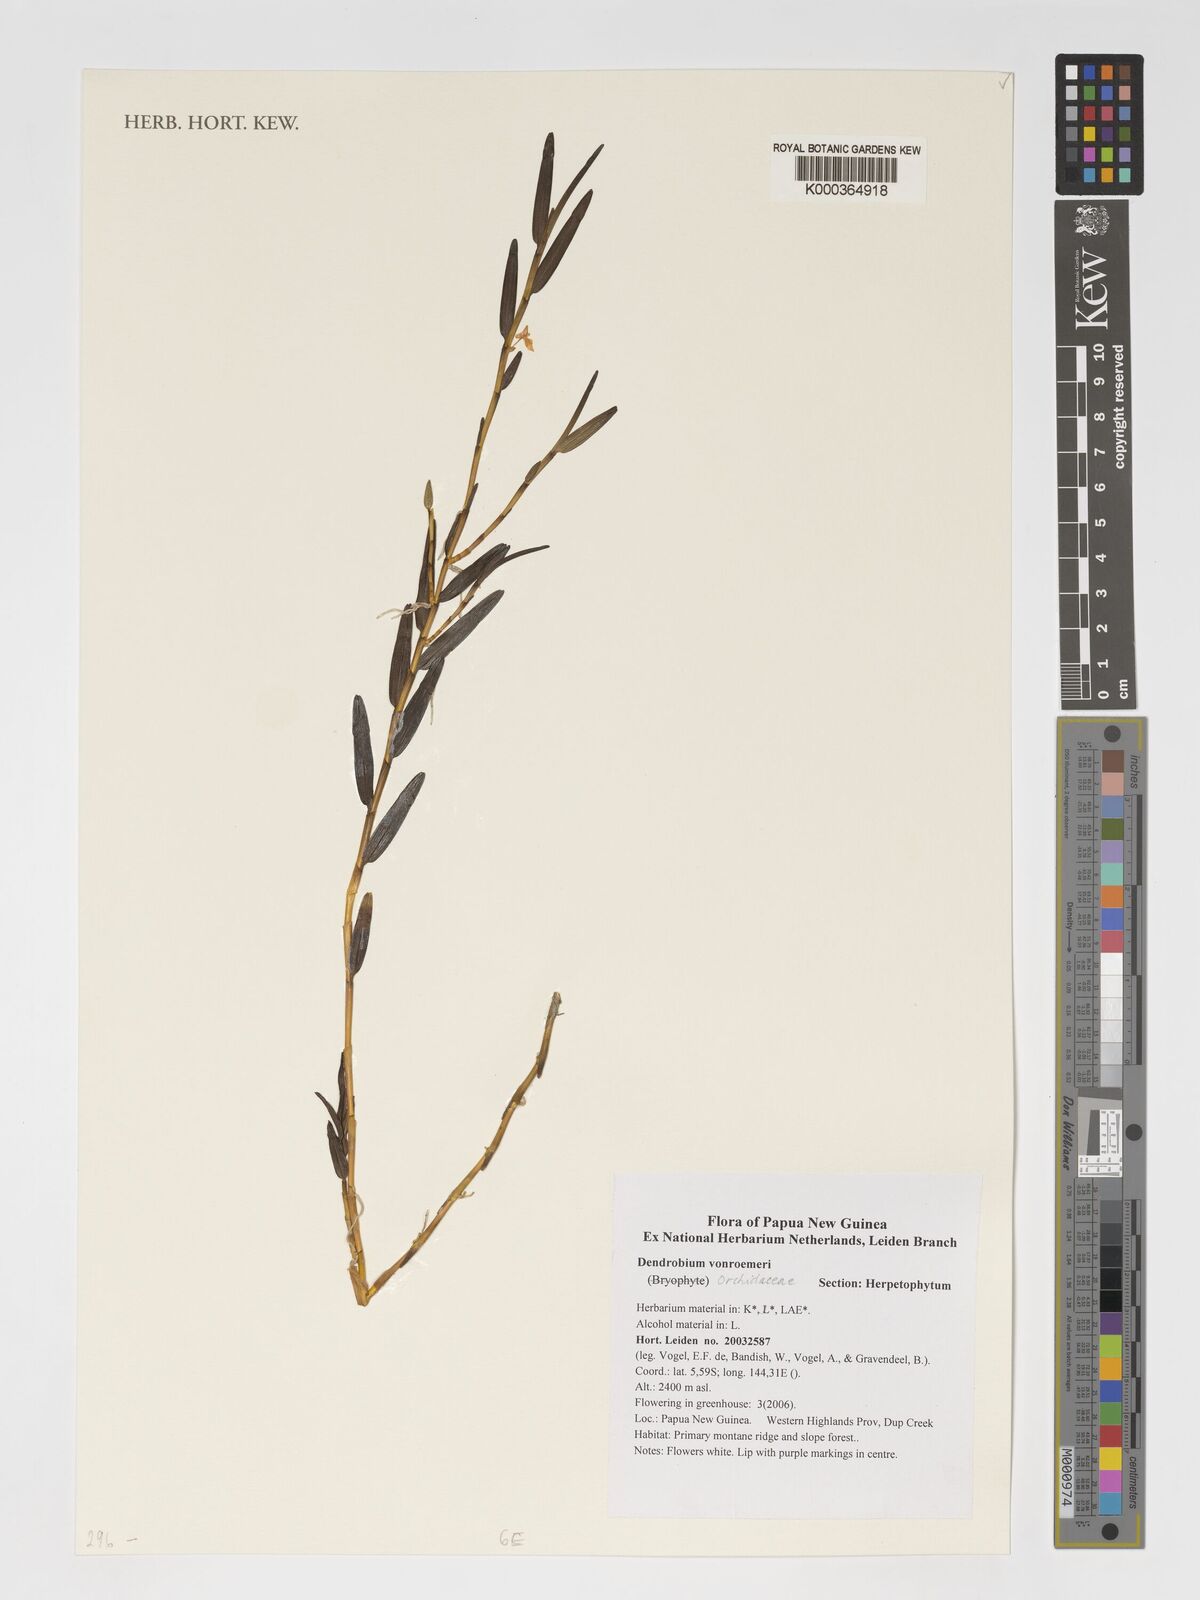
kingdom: Plantae
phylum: Tracheophyta
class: Liliopsida
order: Asparagales
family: Orchidaceae
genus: Dendrobium
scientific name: Dendrobium vonroemeri
